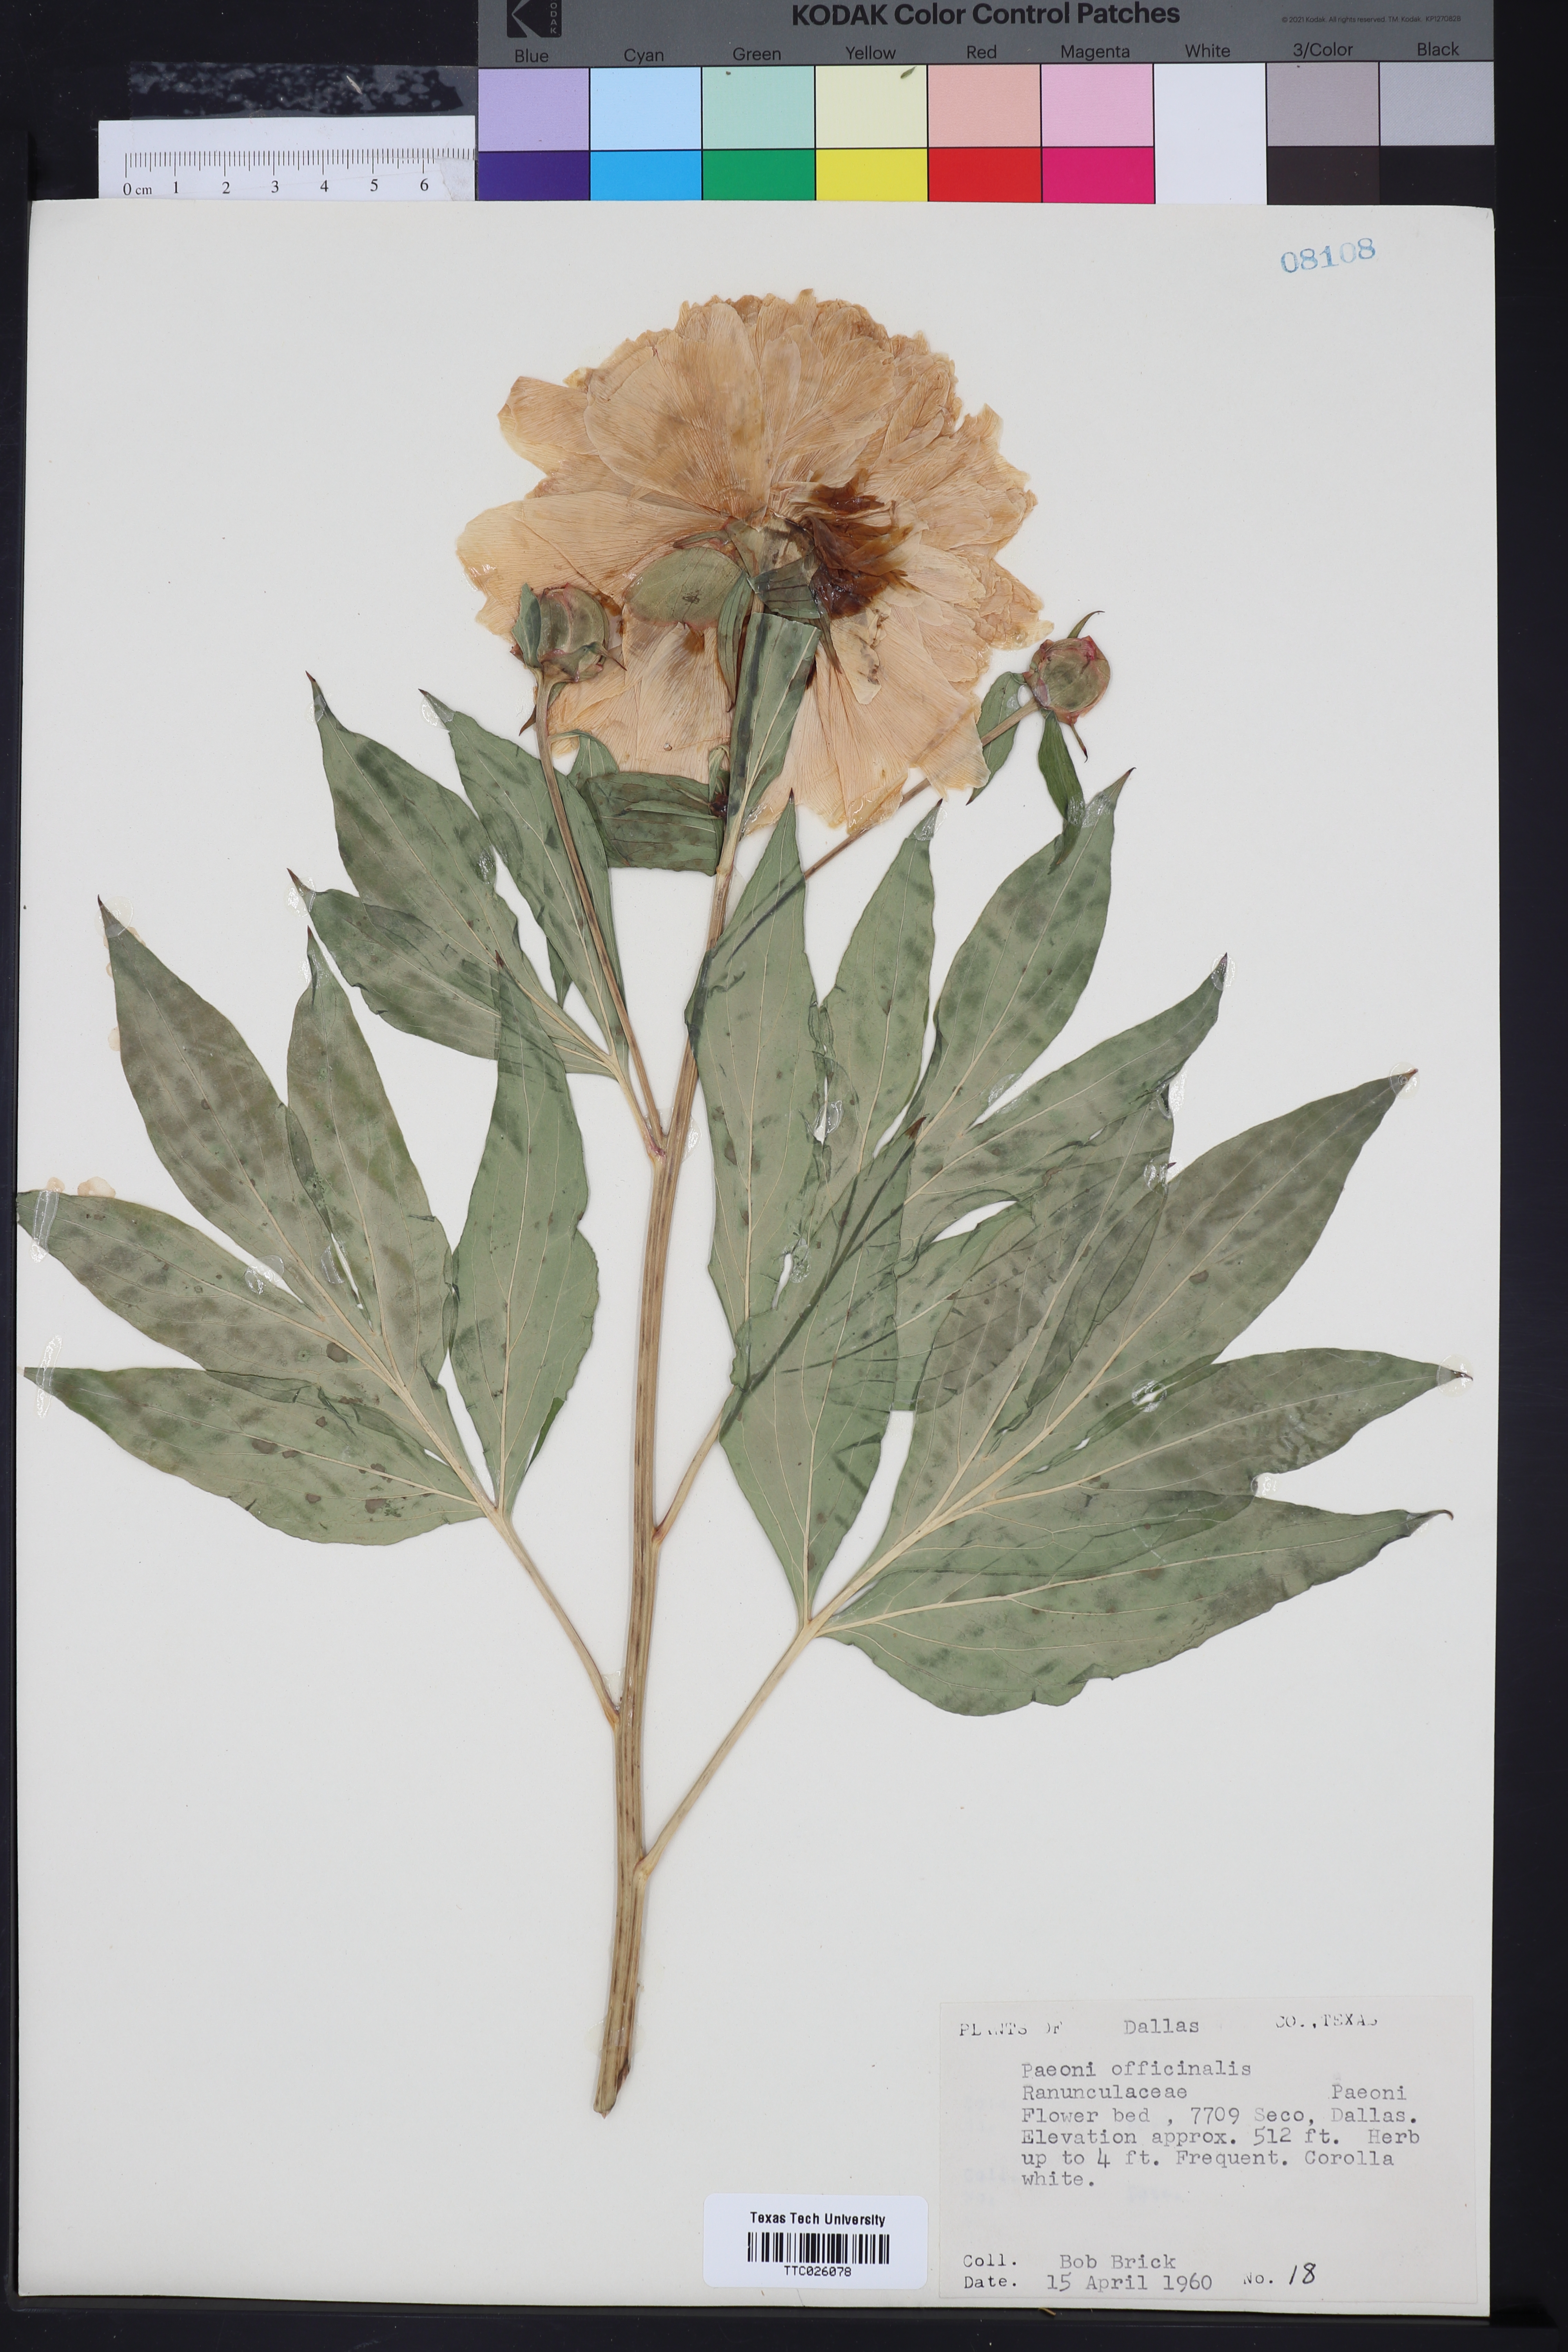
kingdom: Plantae
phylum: Tracheophyta
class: Magnoliopsida
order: Saxifragales
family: Paeoniaceae
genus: Paeonia
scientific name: Paeonia officinalis
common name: Common peony
